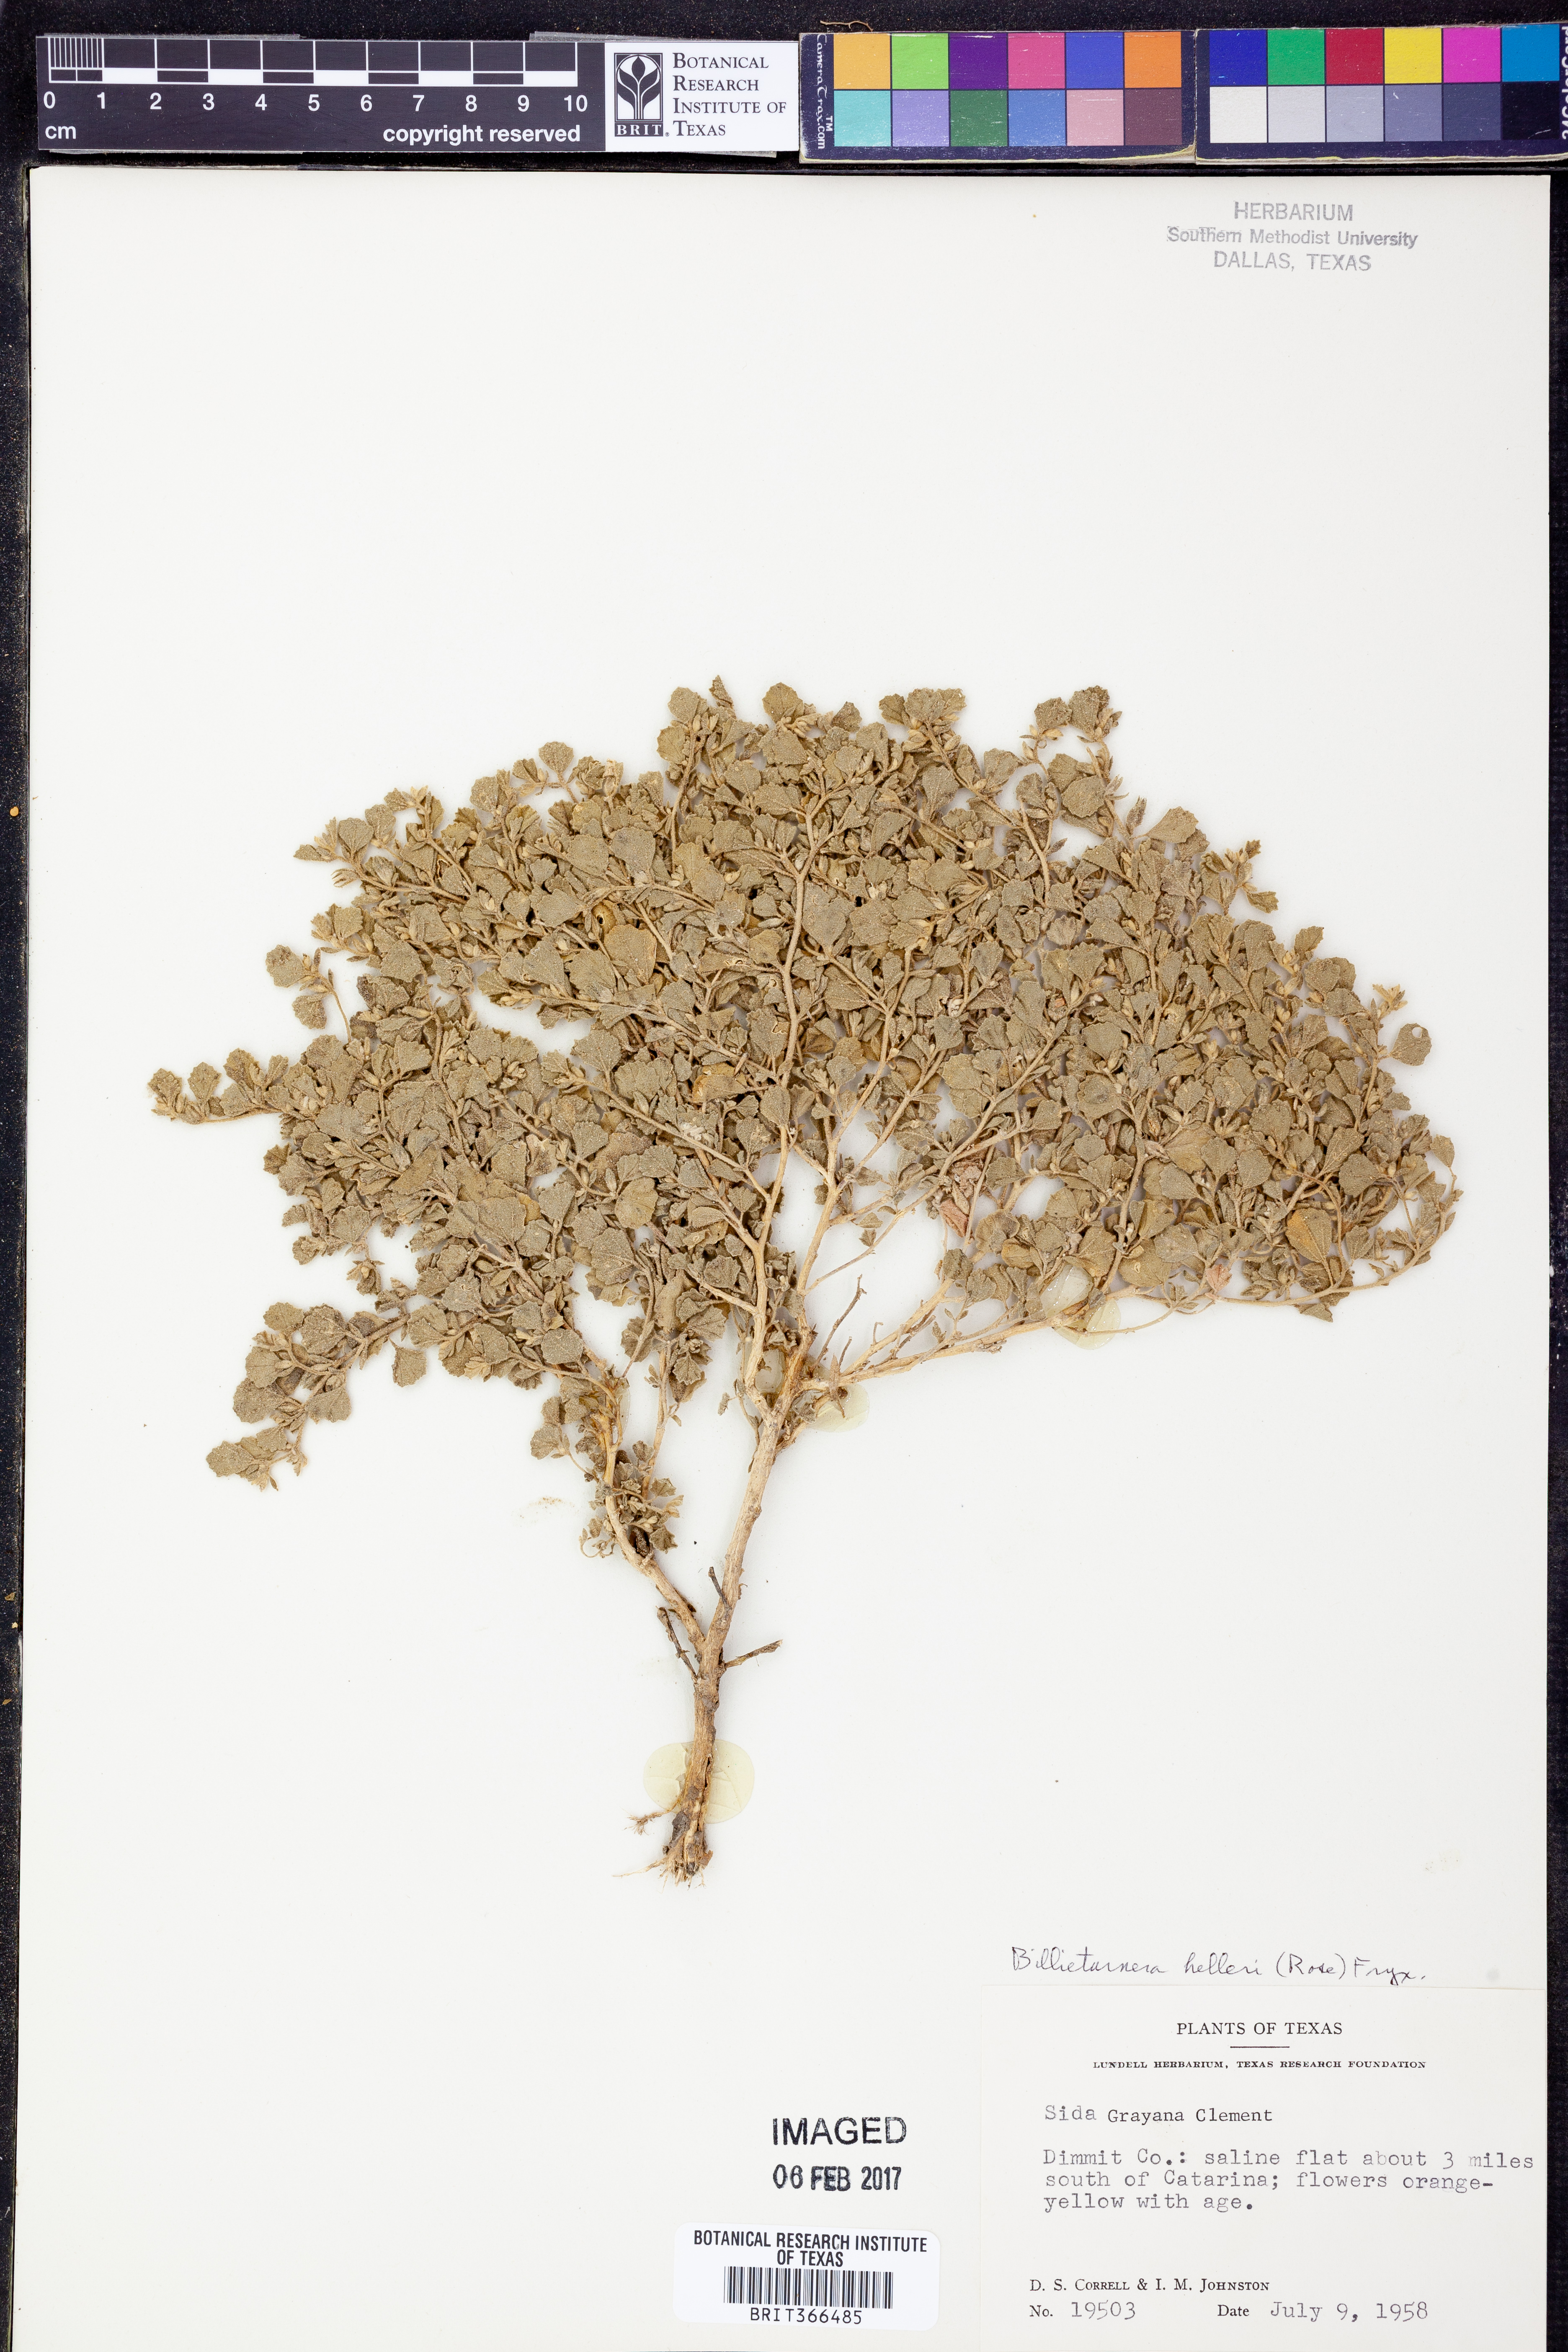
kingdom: Plantae
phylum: Tracheophyta
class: Magnoliopsida
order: Malvales
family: Malvaceae
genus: Billieturnera
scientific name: Billieturnera helleri
